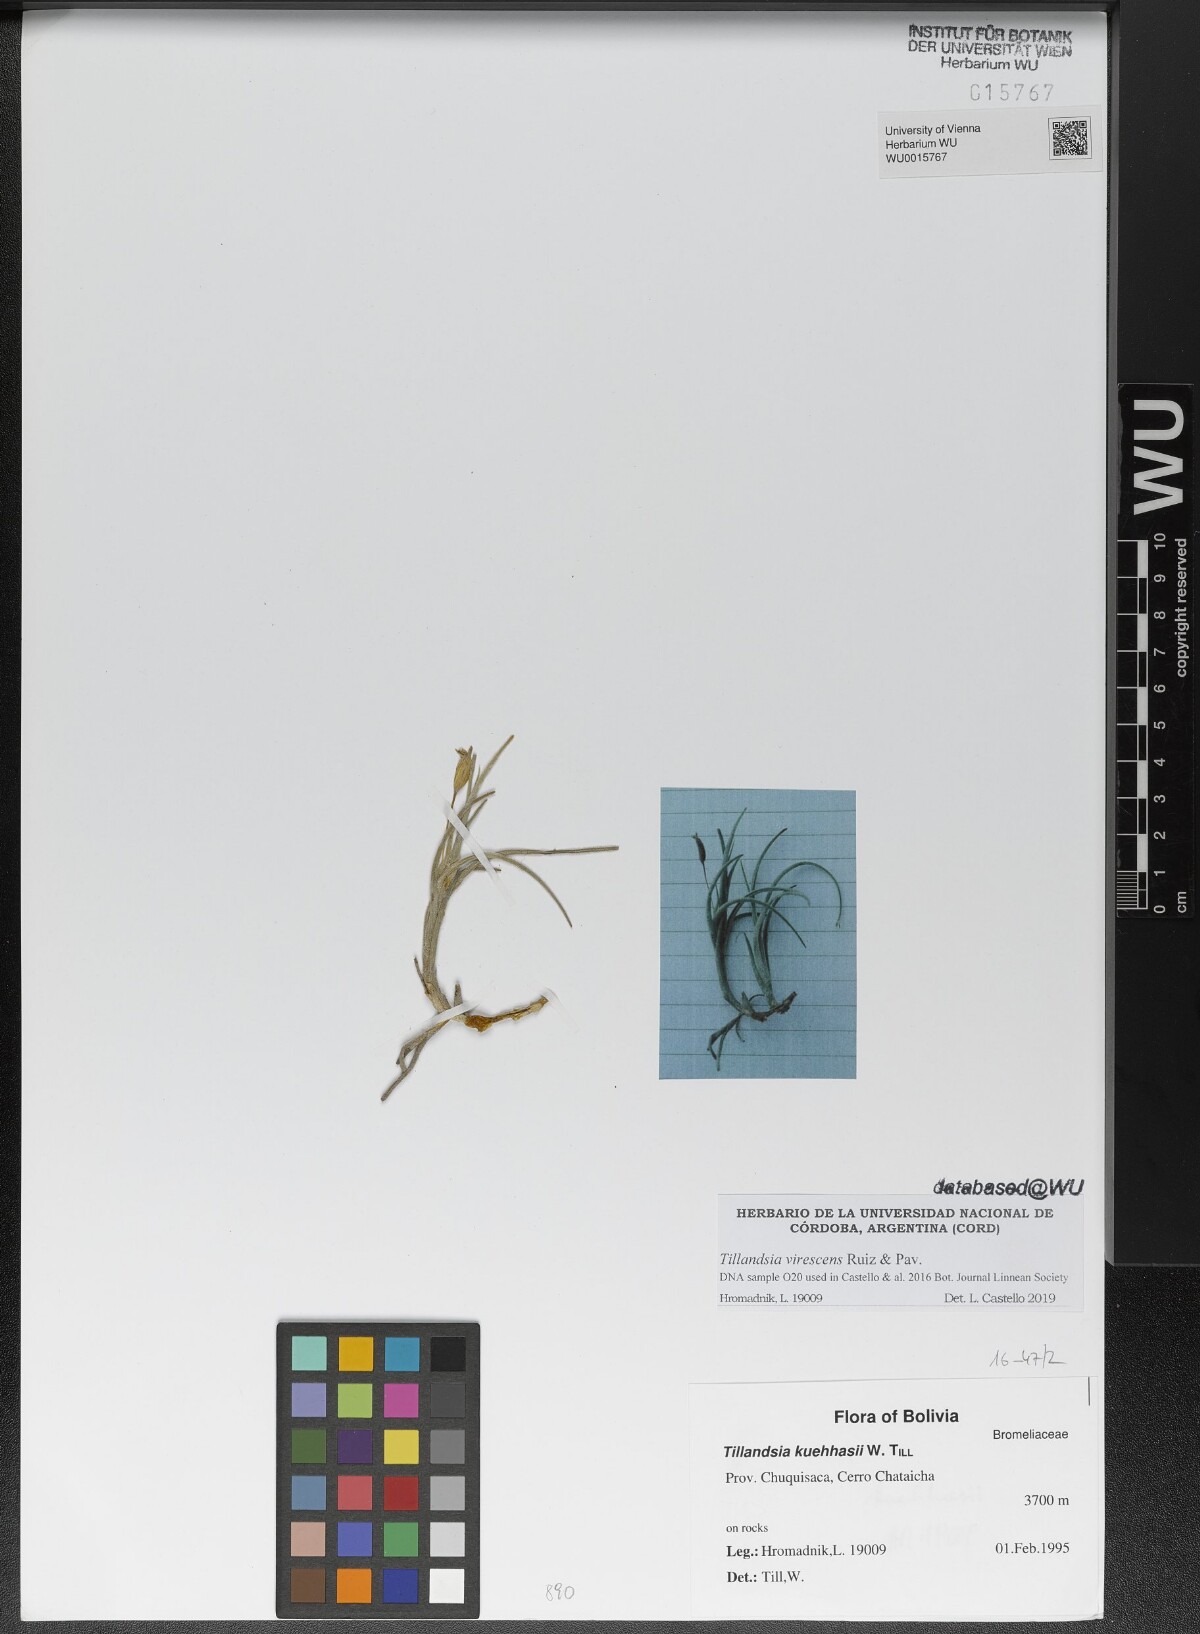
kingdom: Plantae
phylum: Tracheophyta
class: Liliopsida
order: Poales
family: Bromeliaceae
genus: Tillandsia
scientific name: Tillandsia virescens
